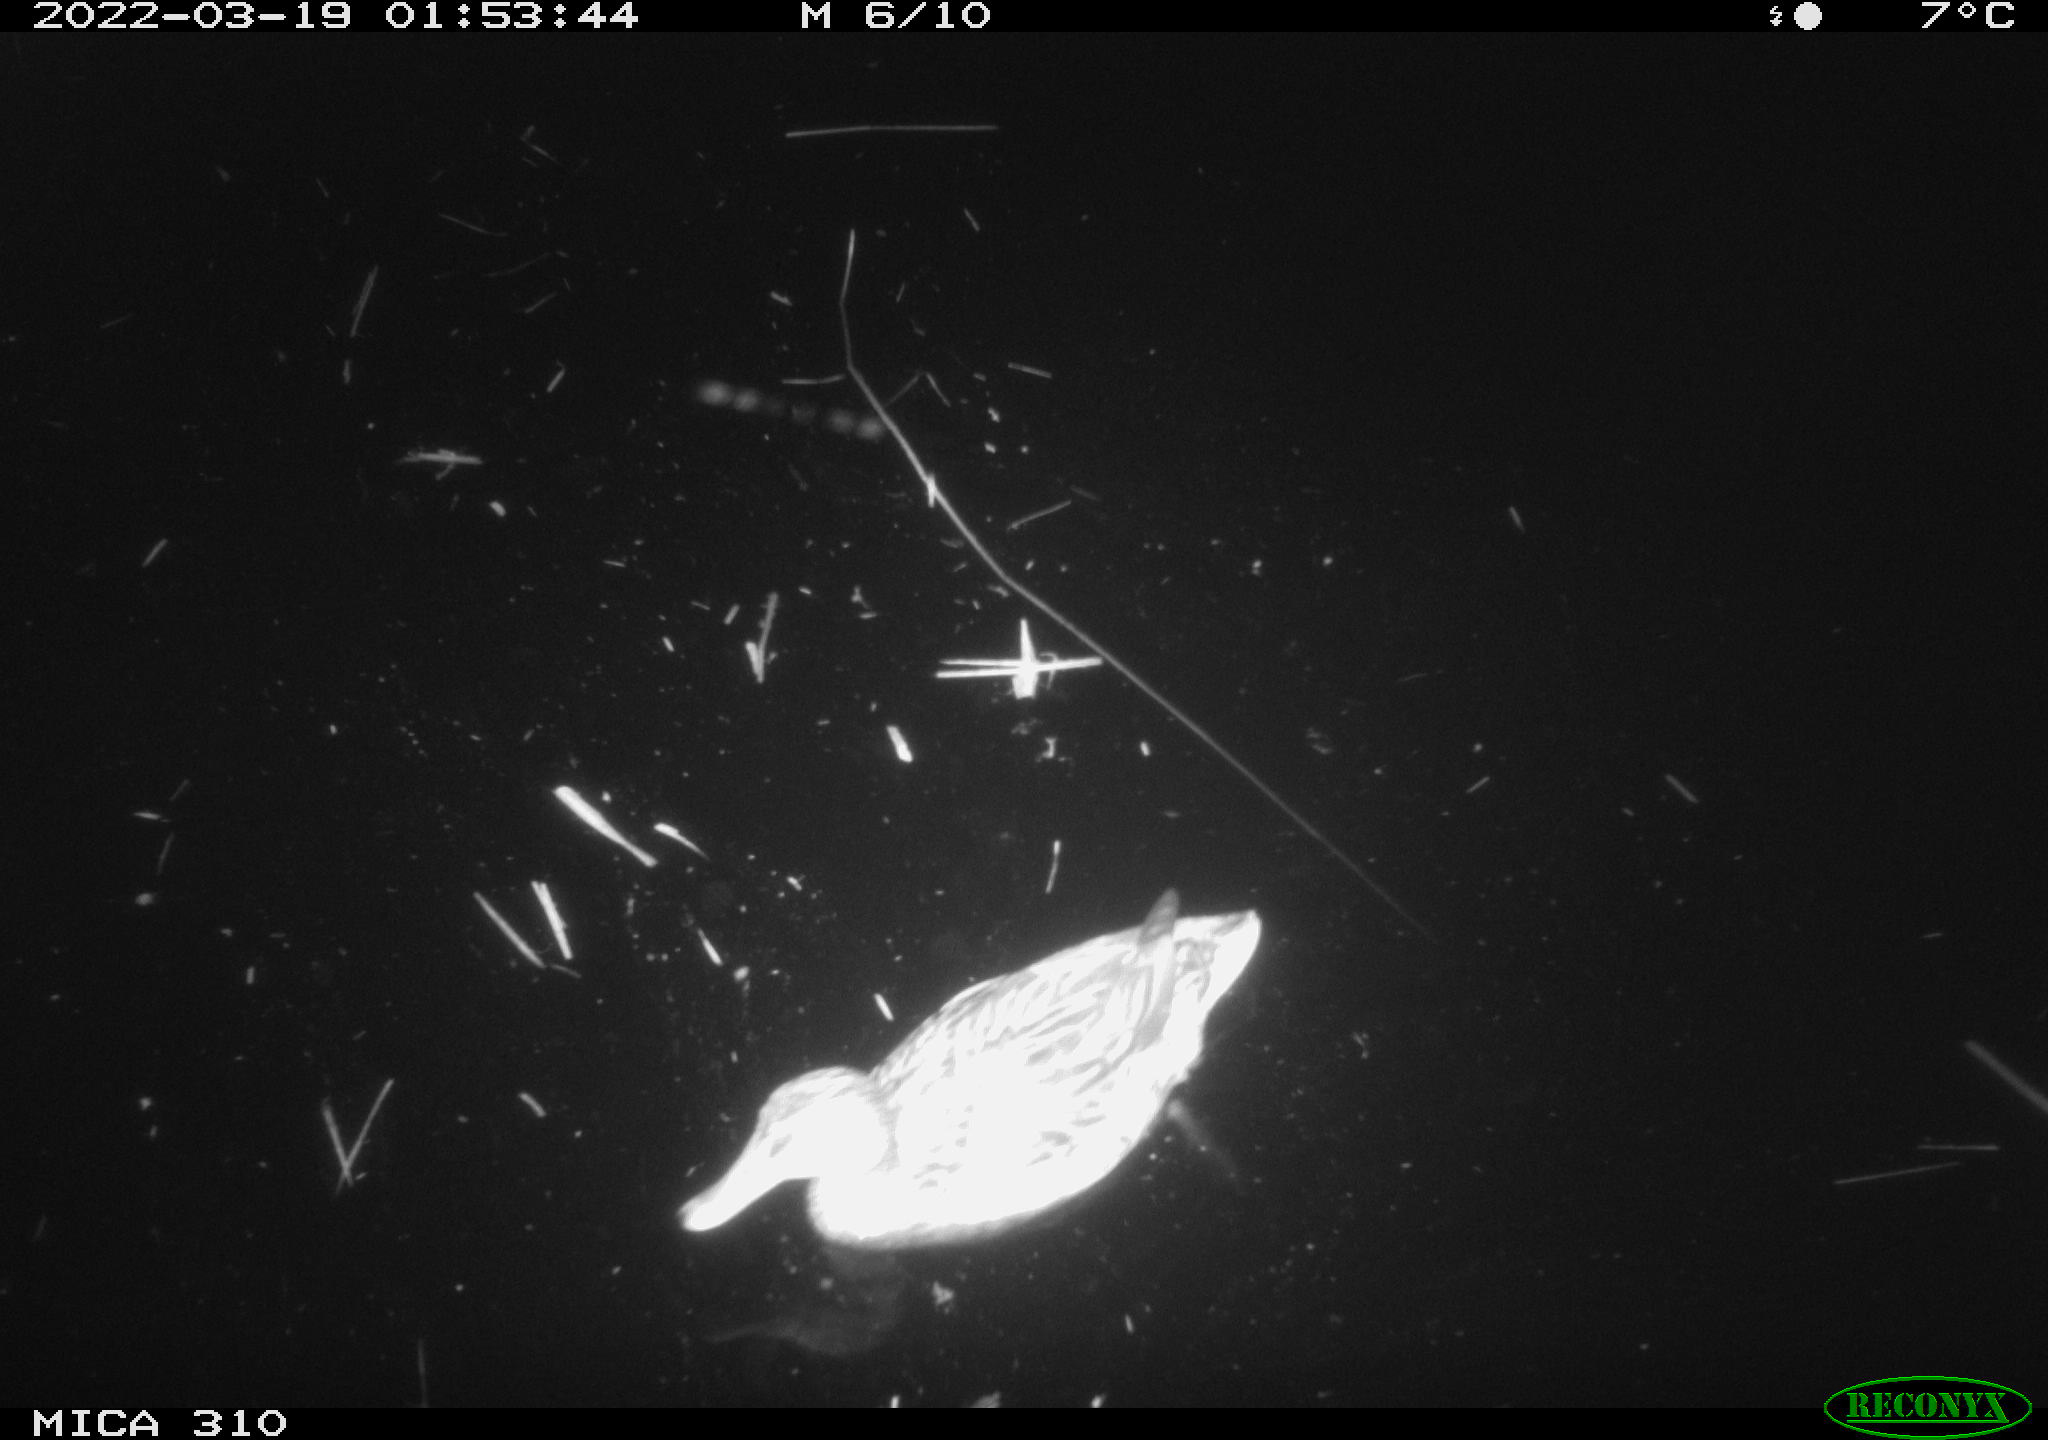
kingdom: Animalia
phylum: Chordata
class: Aves
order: Anseriformes
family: Anatidae
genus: Mareca
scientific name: Mareca strepera
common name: Gadwall
